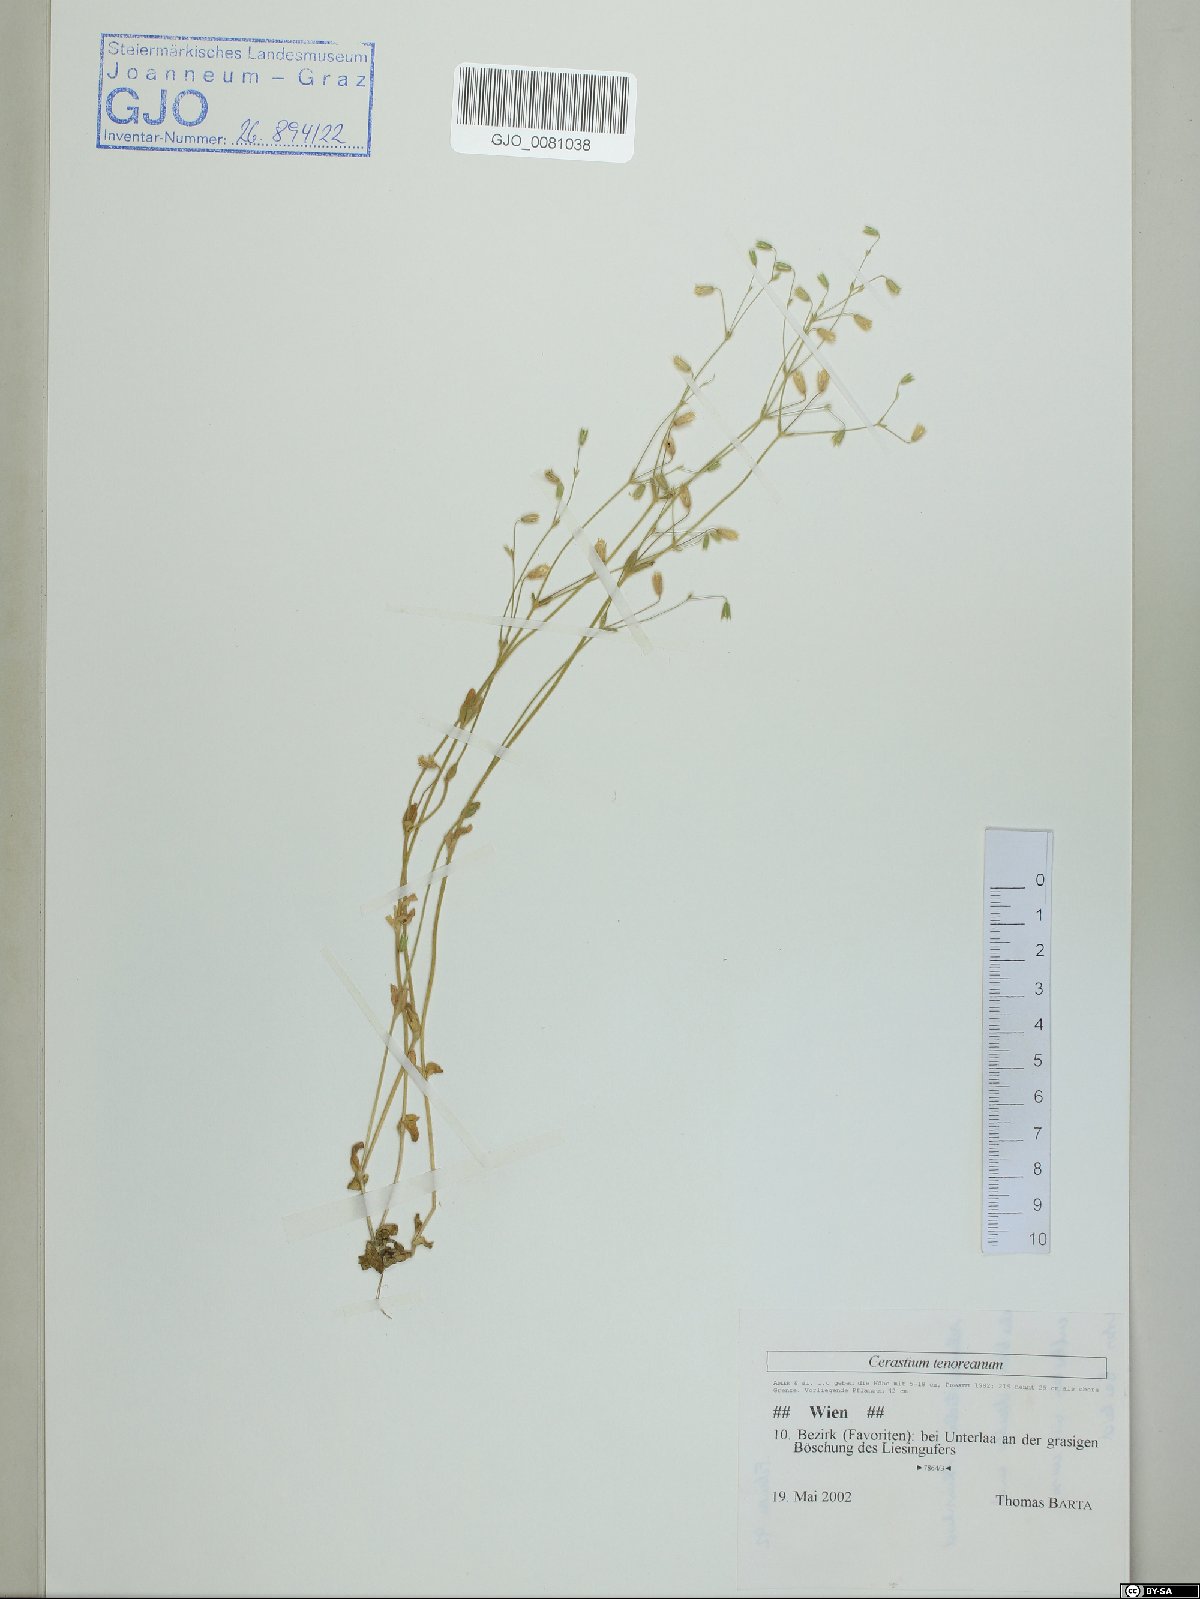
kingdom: Plantae
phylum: Tracheophyta
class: Magnoliopsida
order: Caryophyllales
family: Caryophyllaceae
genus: Cerastium
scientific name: Cerastium tenoreanum
